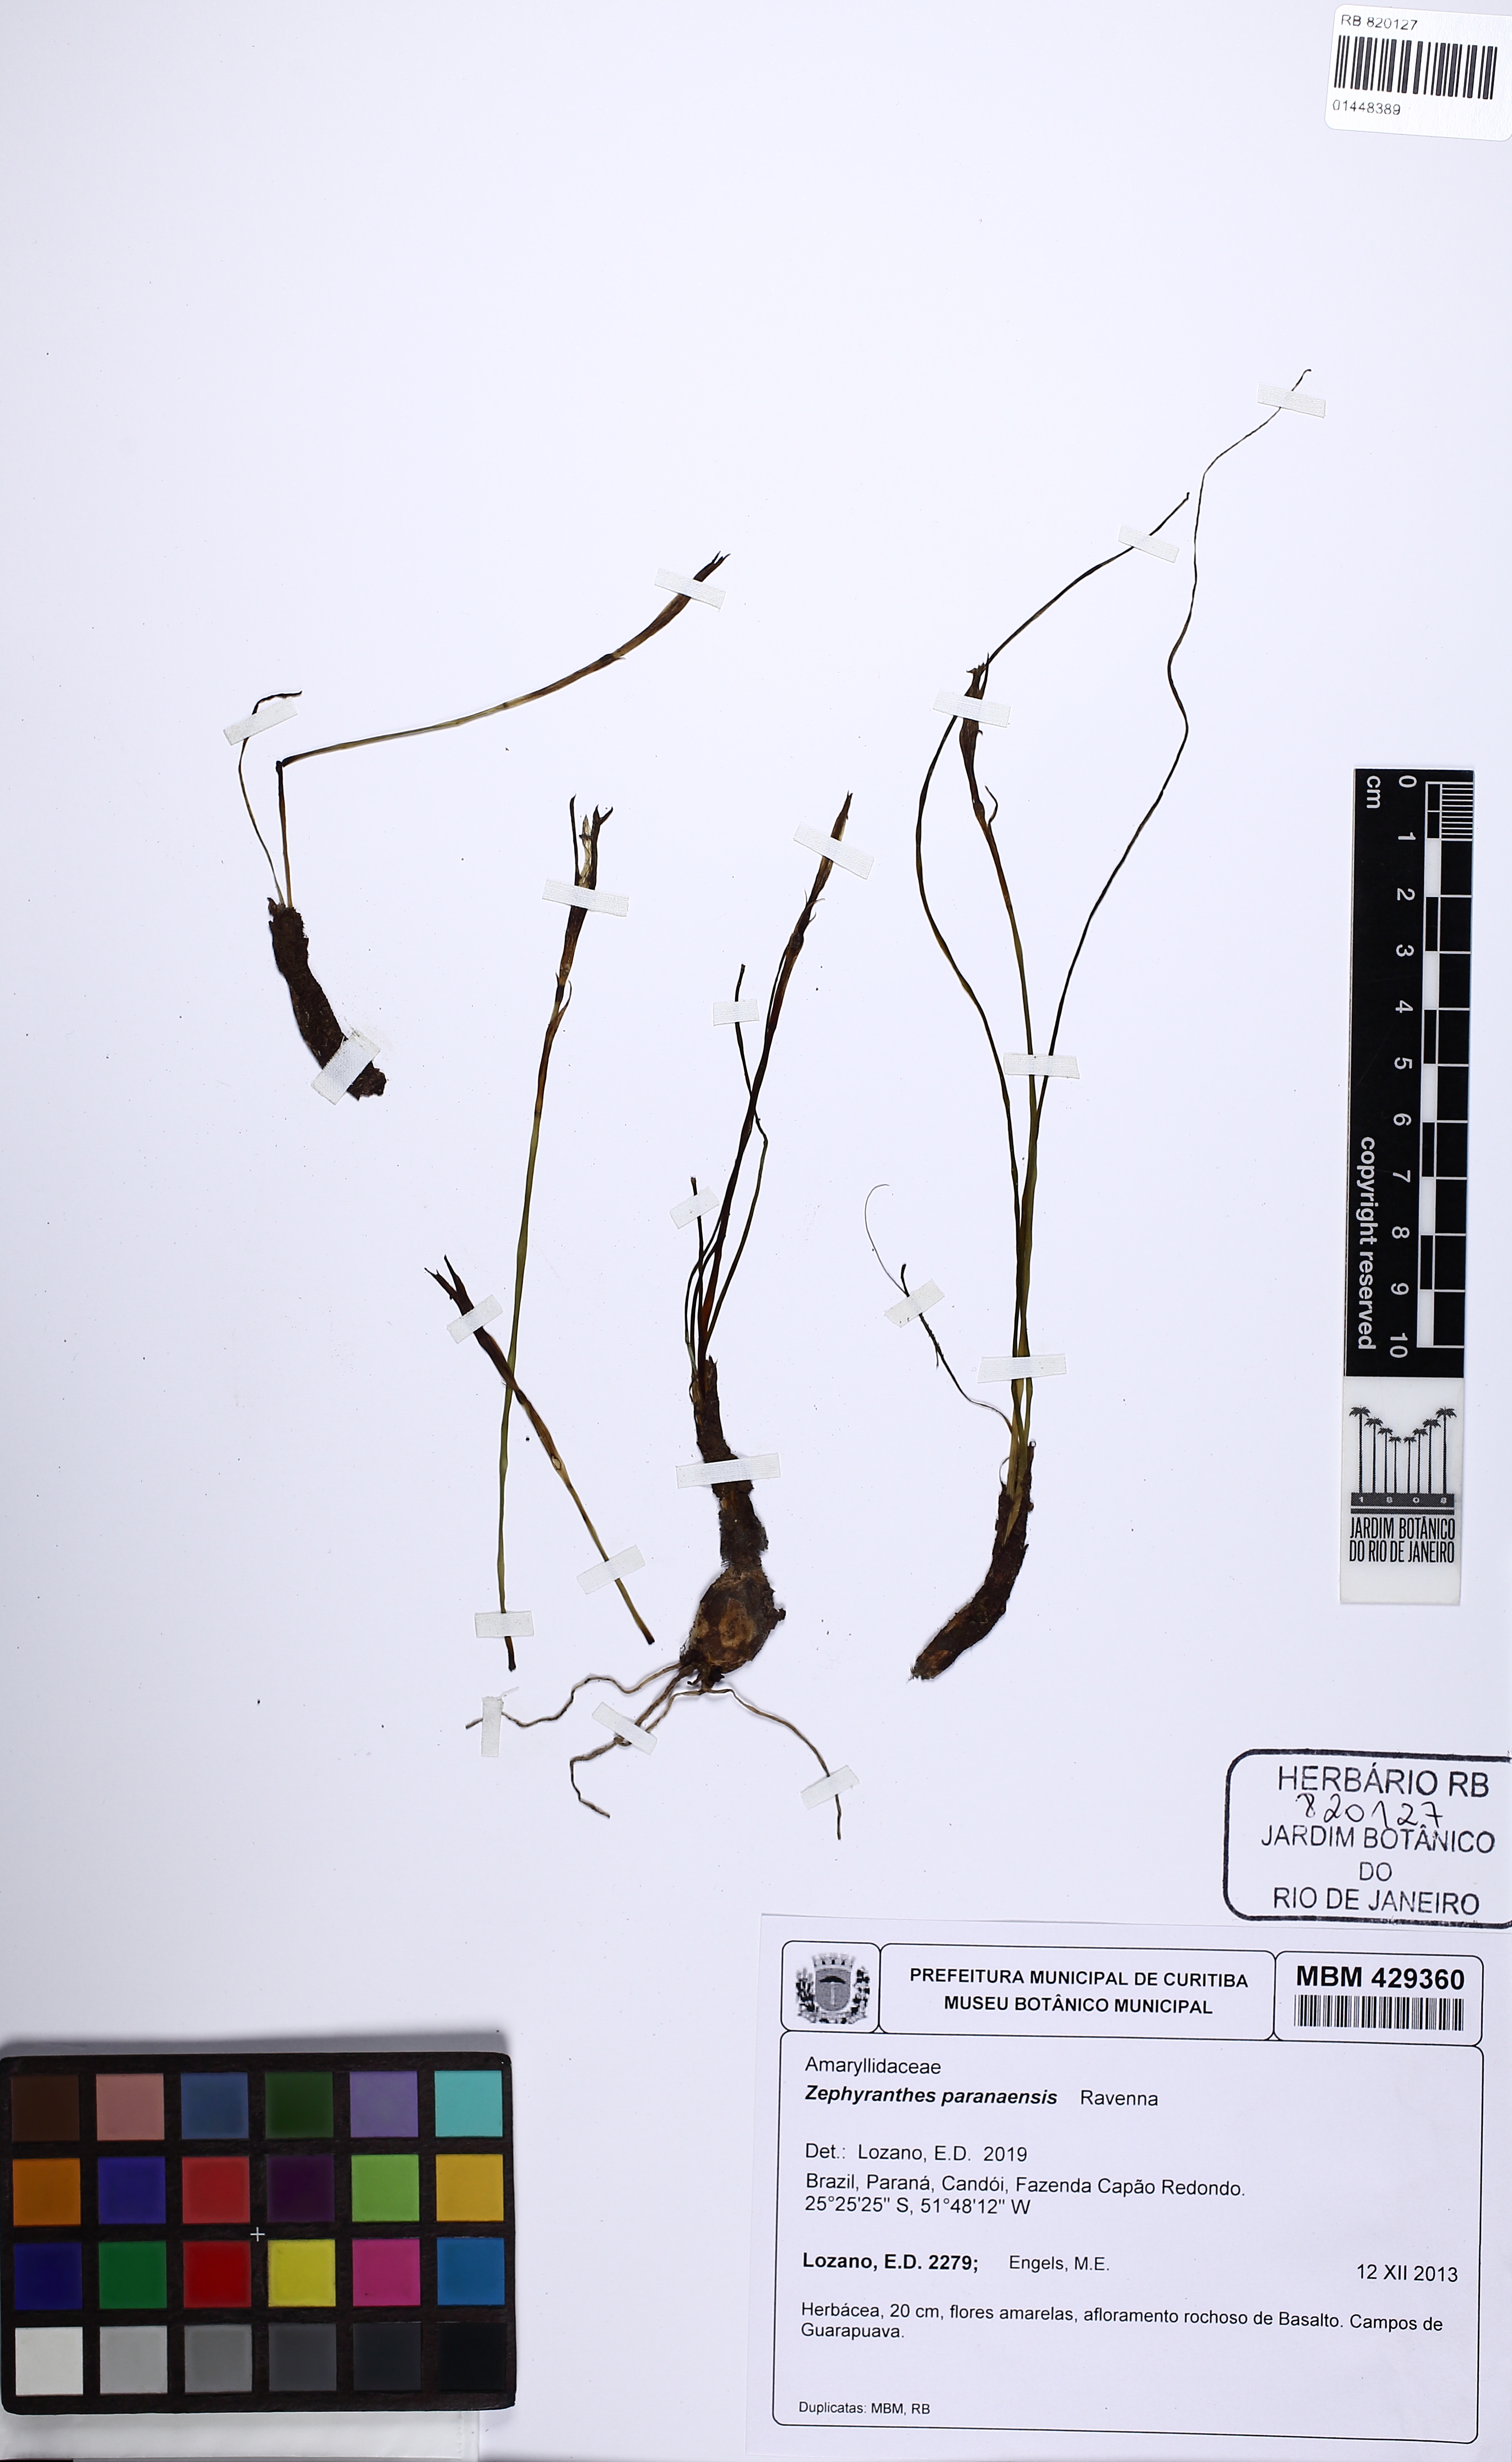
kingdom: Plantae
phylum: Tracheophyta
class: Liliopsida
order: Asparagales
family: Amaryllidaceae
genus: Zephyranthes
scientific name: Zephyranthes paranaensis
